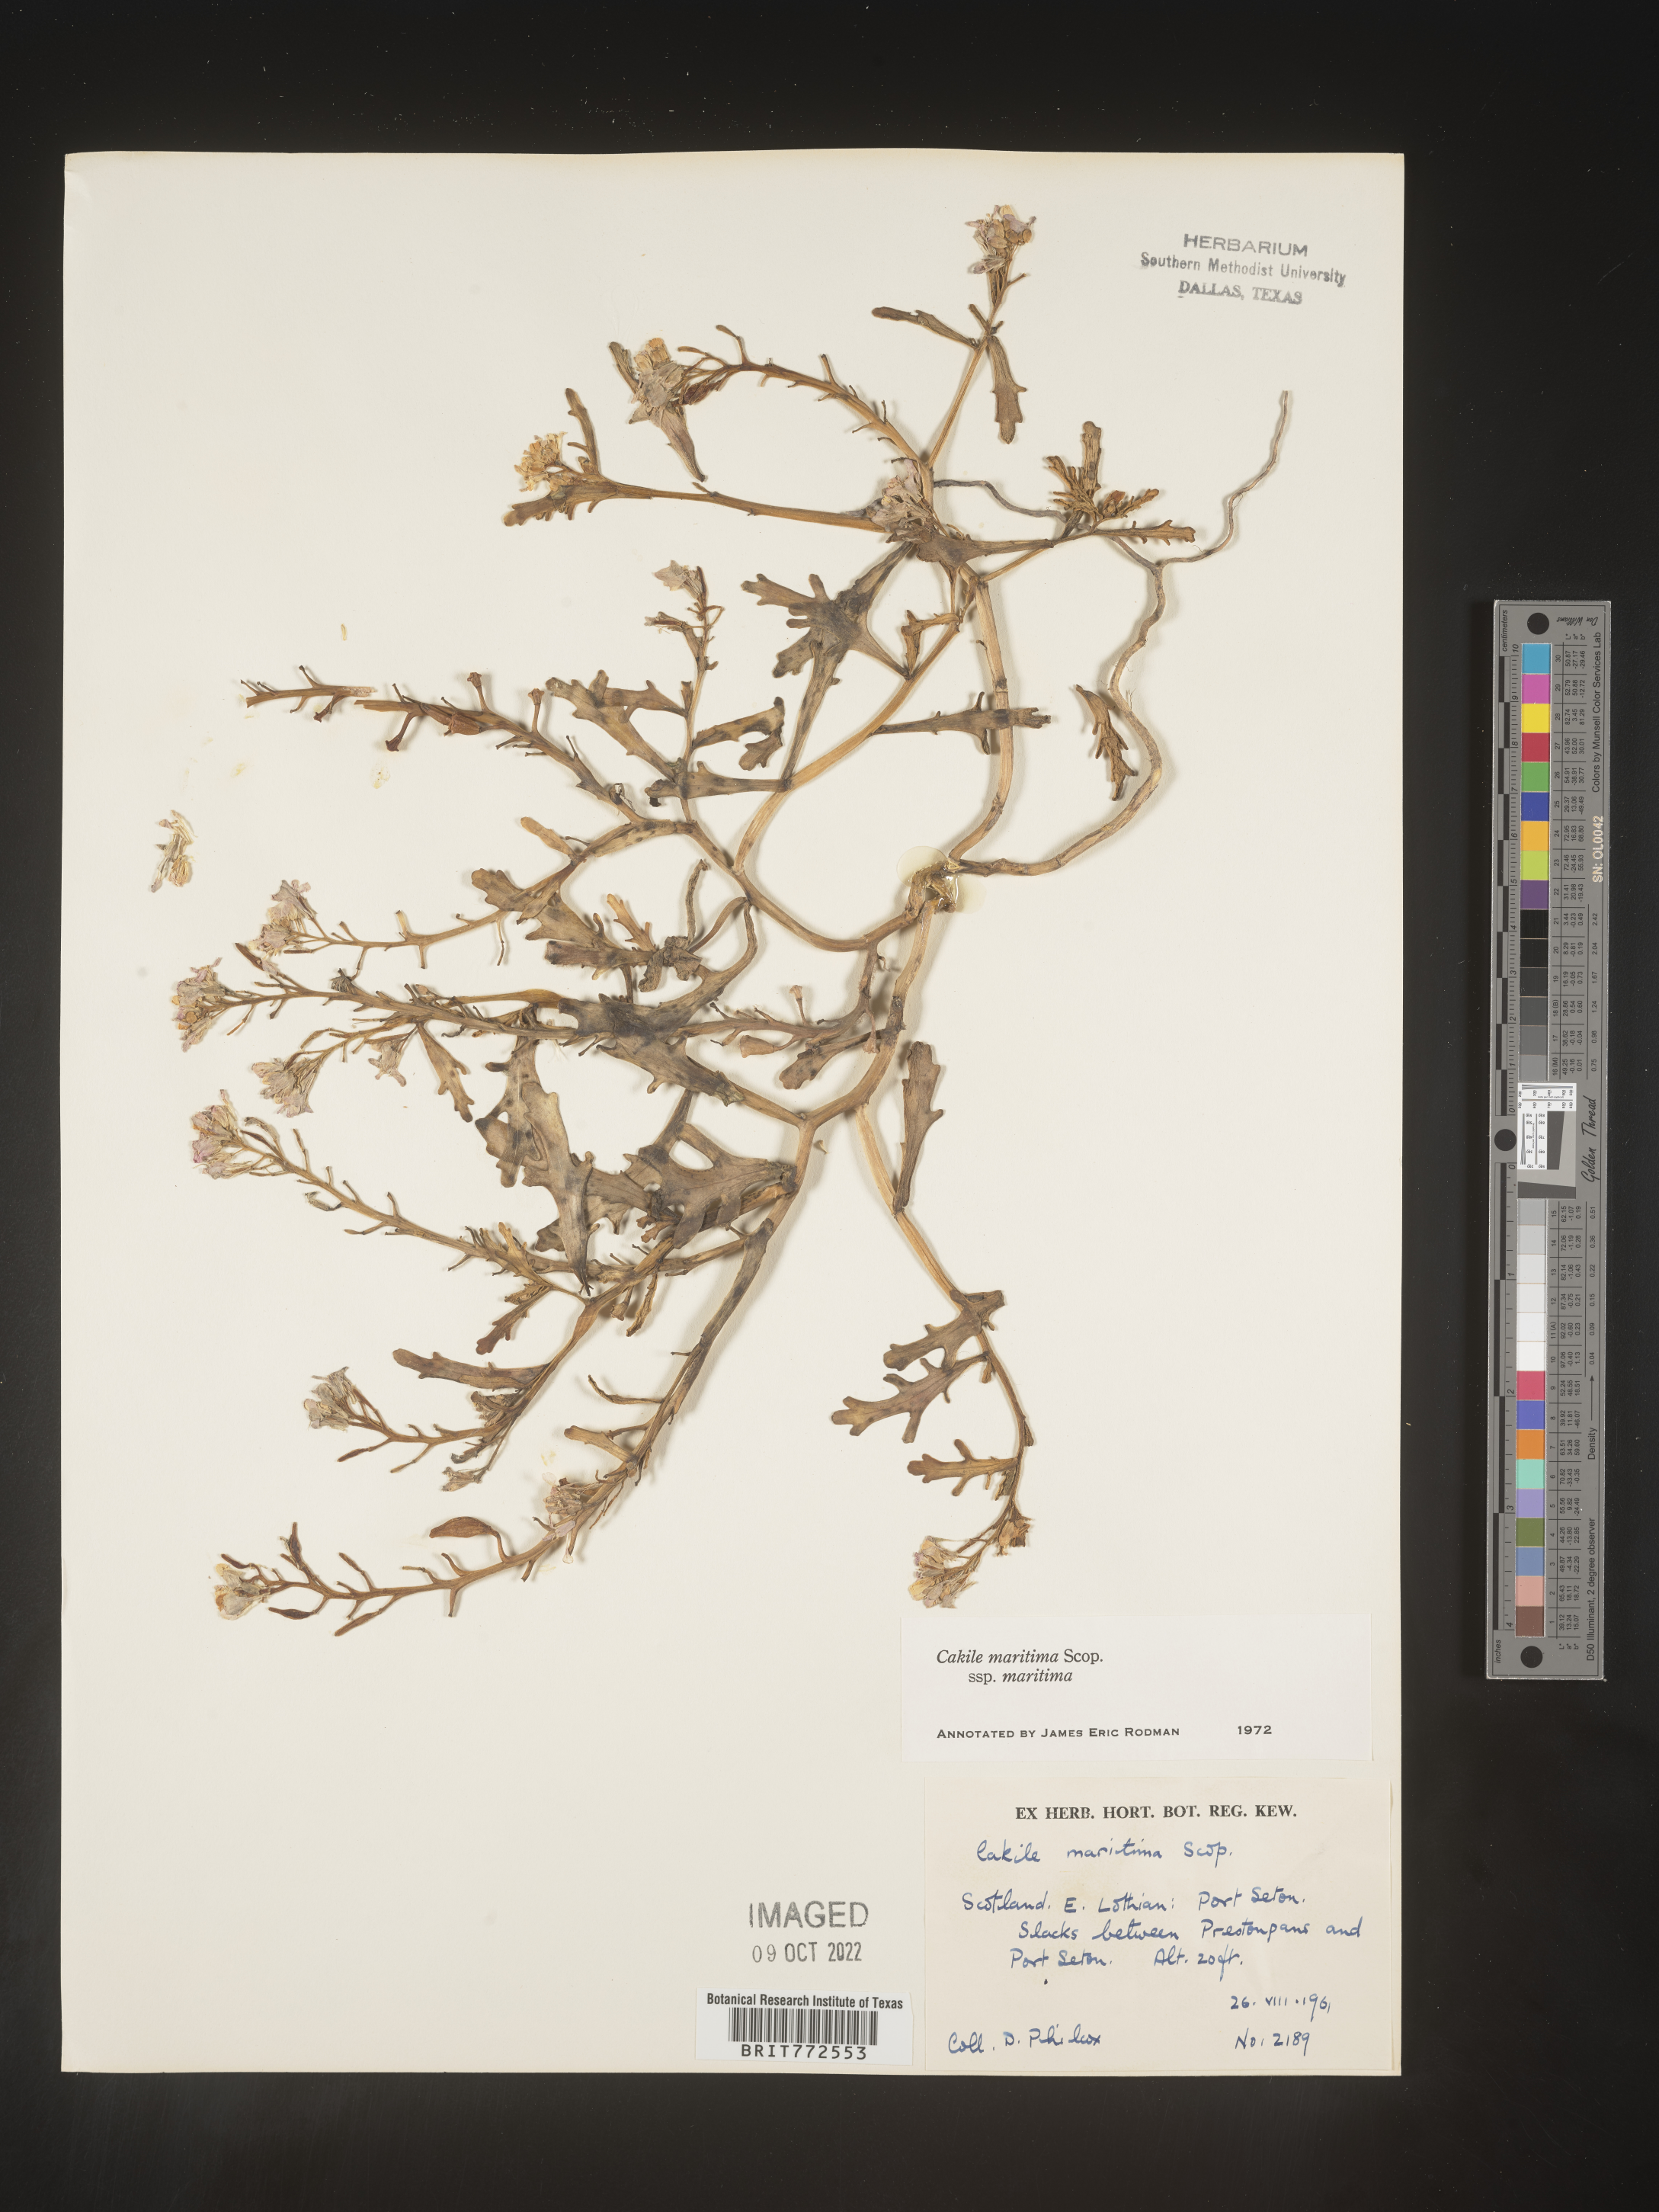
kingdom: Plantae
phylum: Tracheophyta
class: Magnoliopsida
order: Brassicales
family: Brassicaceae
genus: Cakile
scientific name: Cakile
